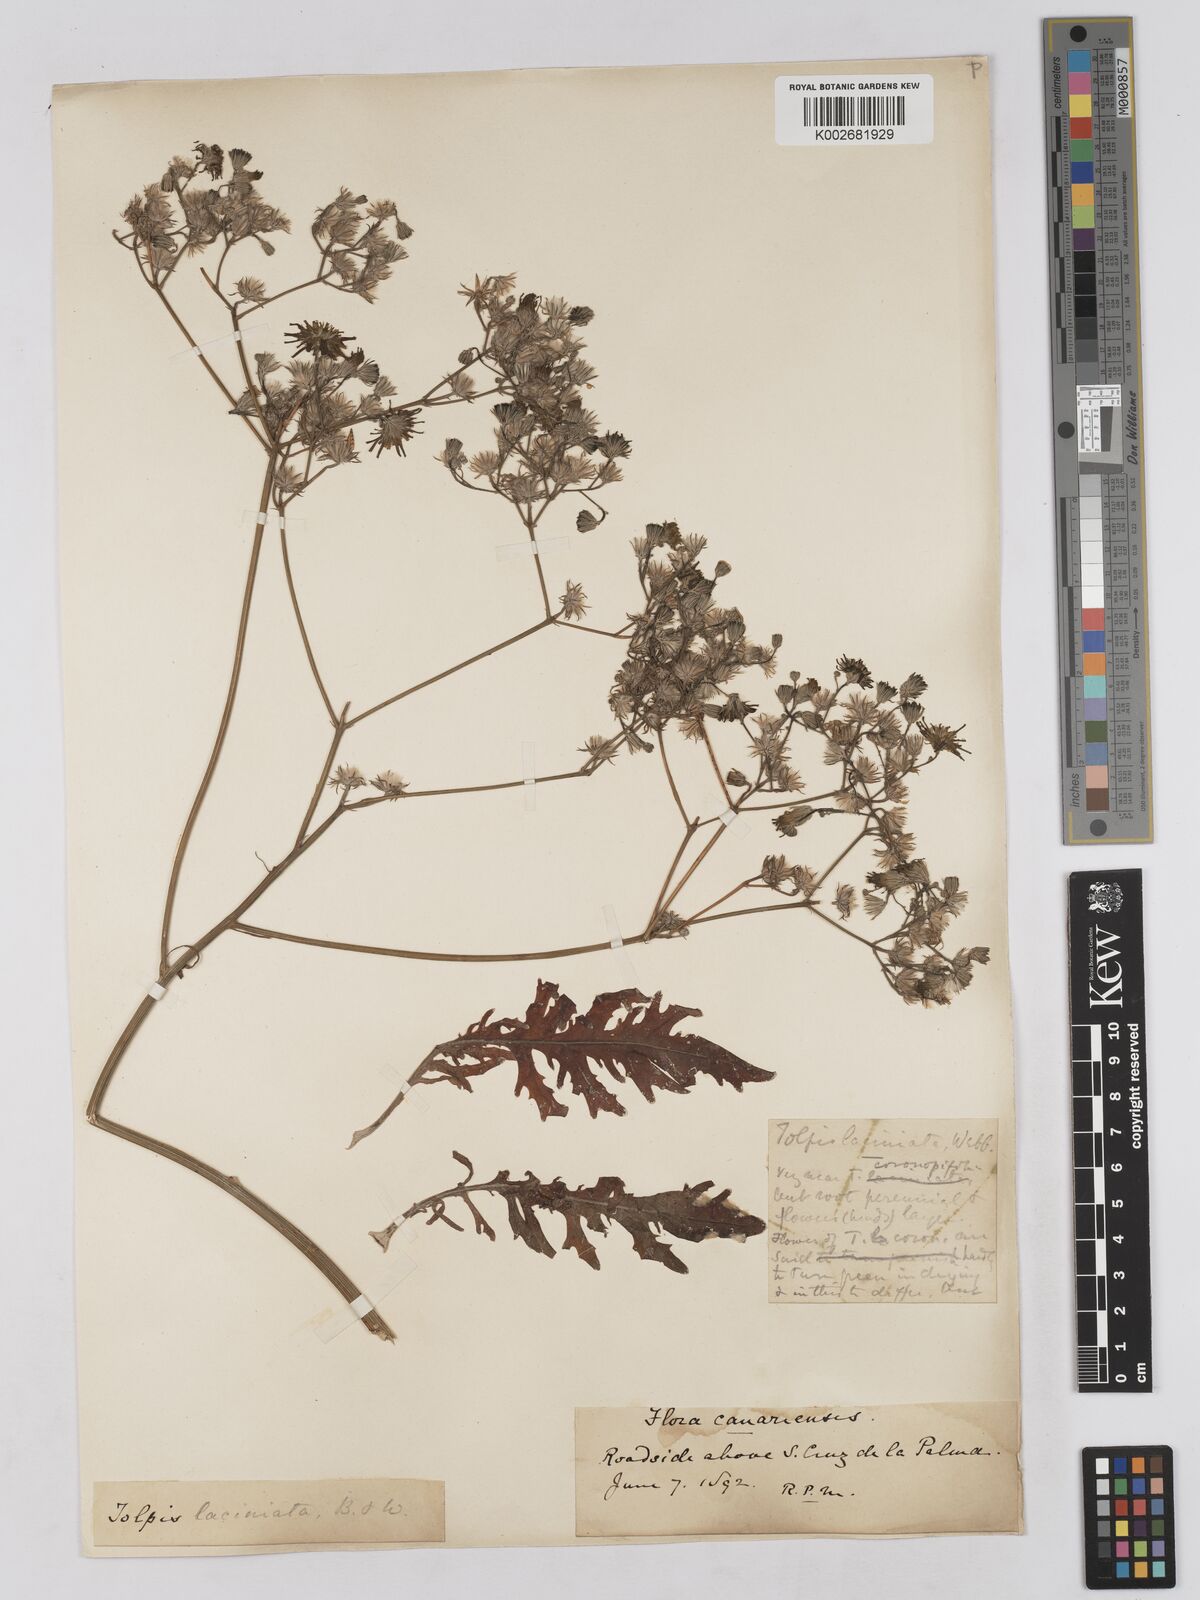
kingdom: Plantae
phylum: Tracheophyta
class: Magnoliopsida
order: Asterales
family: Asteraceae
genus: Tolpis
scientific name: Tolpis laciniata
